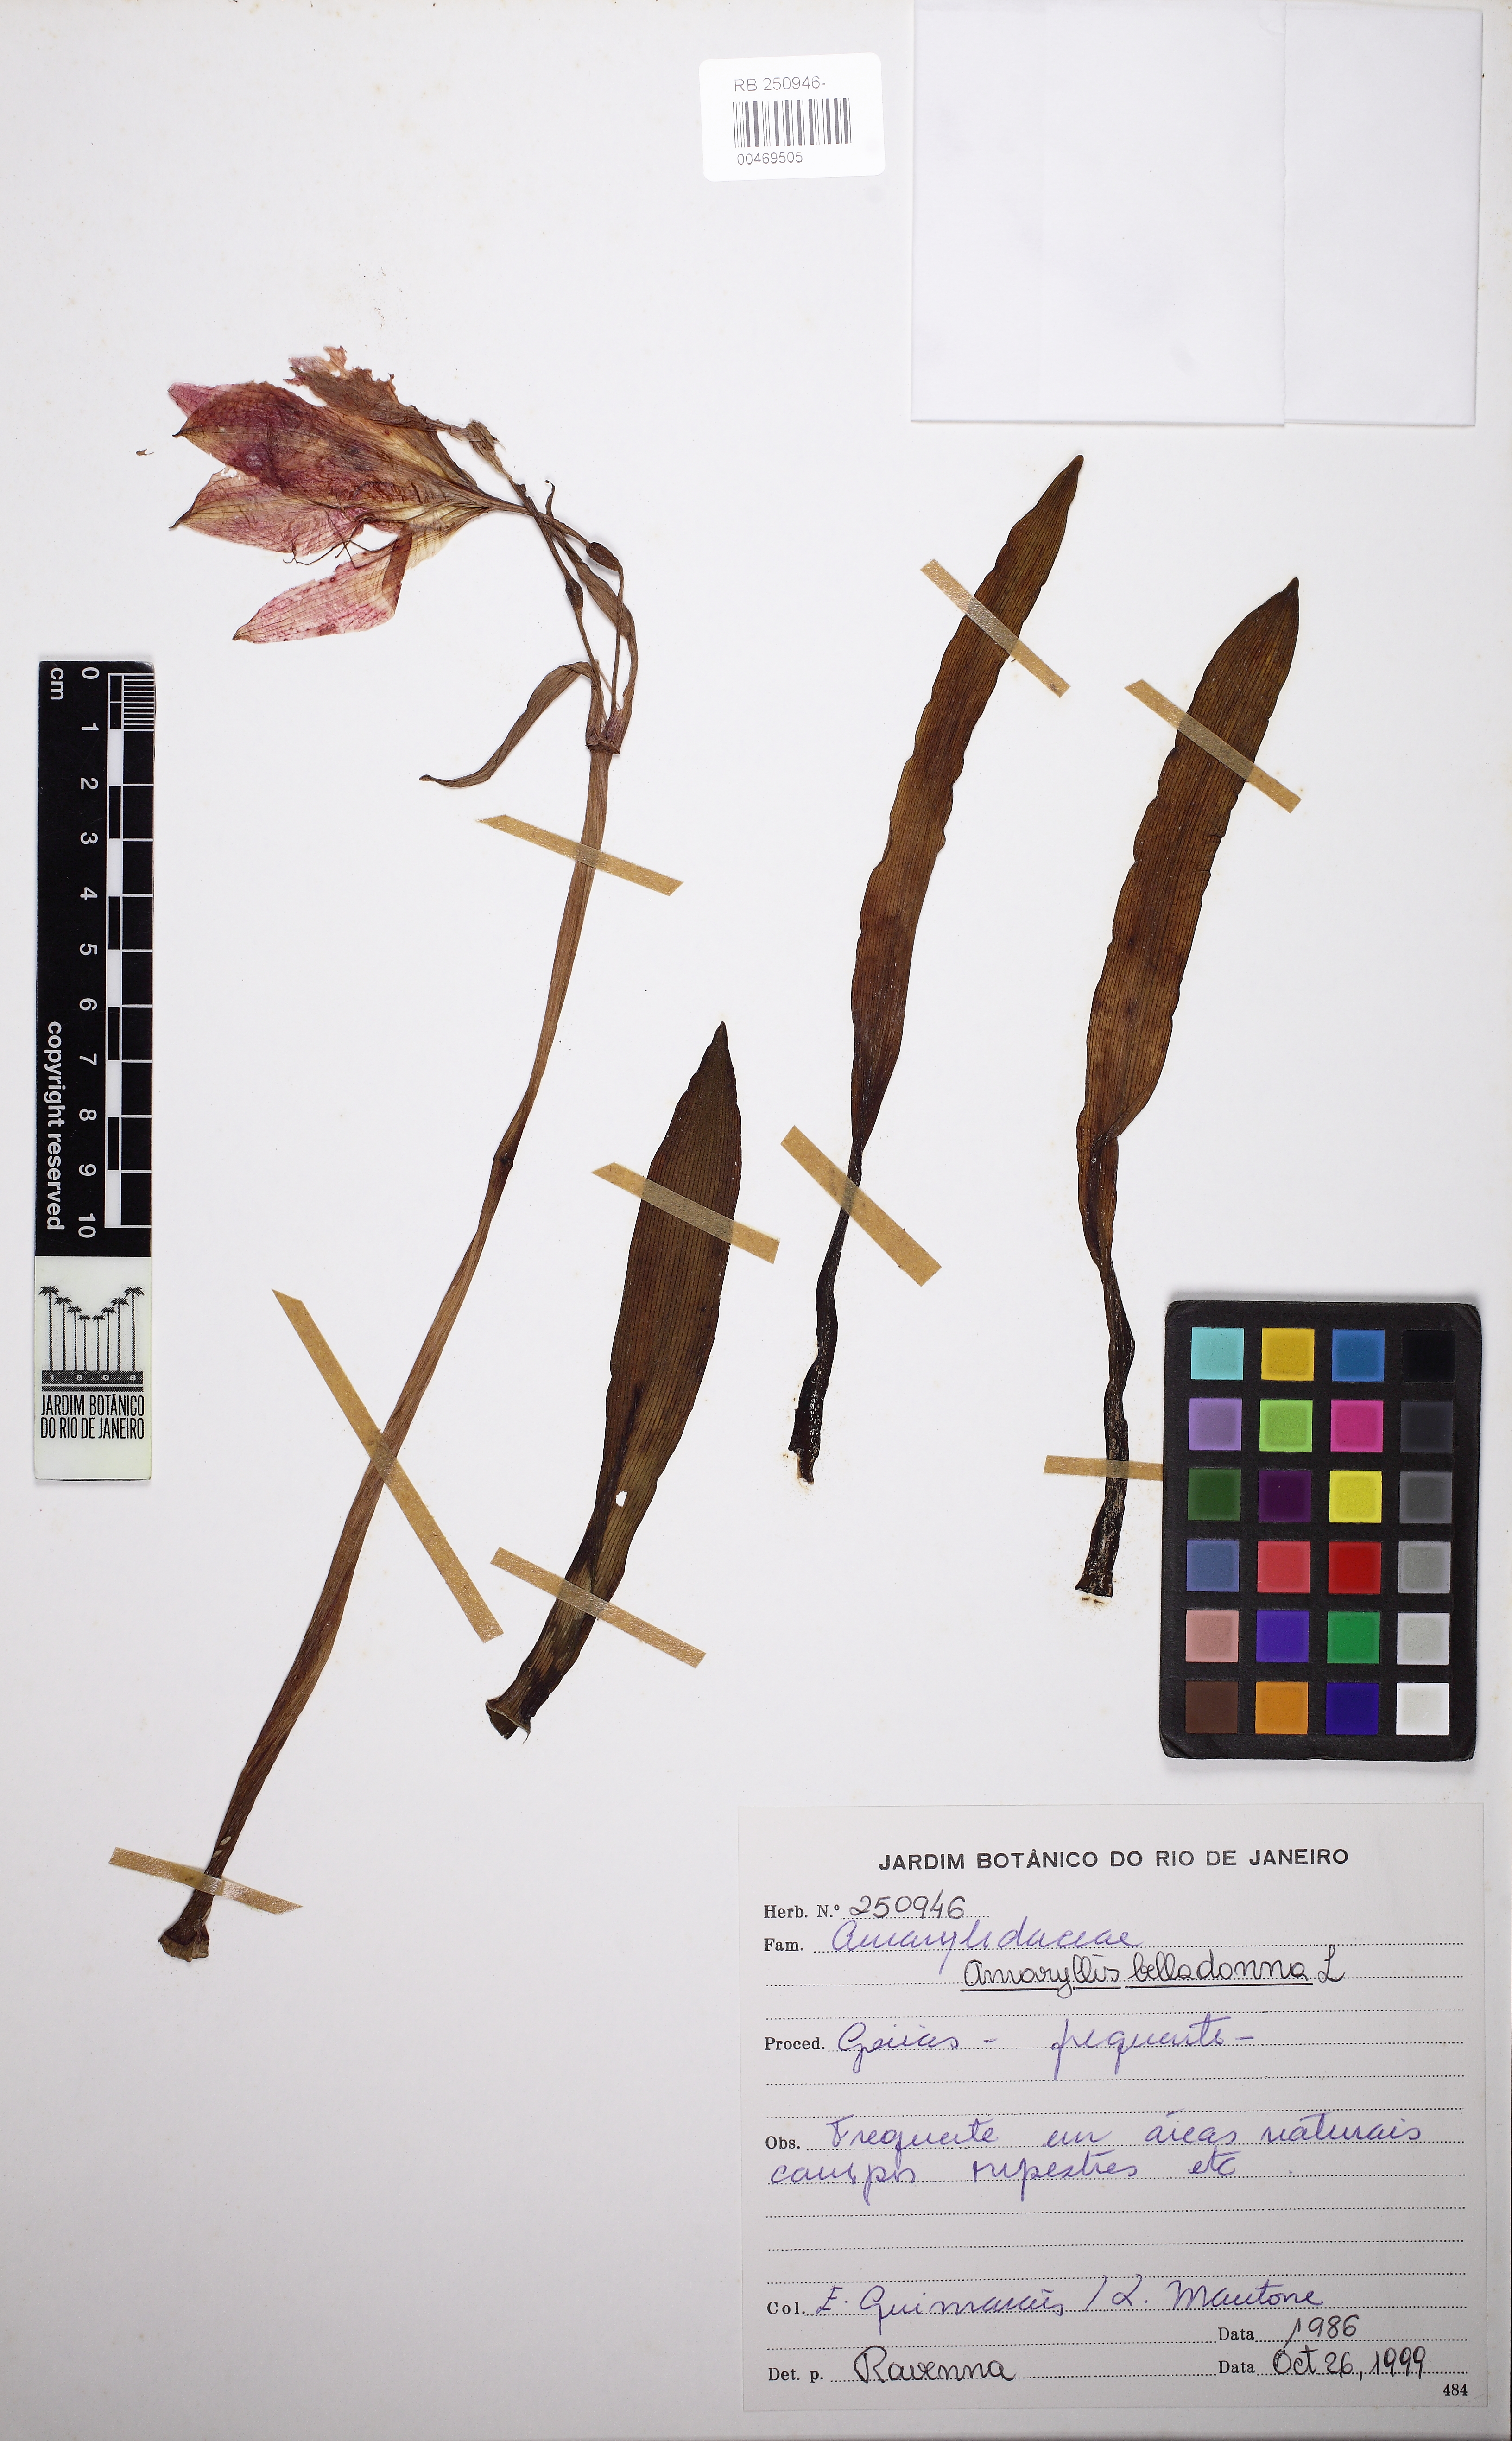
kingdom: Plantae
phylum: Tracheophyta
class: Liliopsida
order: Asparagales
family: Amaryllidaceae
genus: Hippeastrum
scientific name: Hippeastrum puniceum
